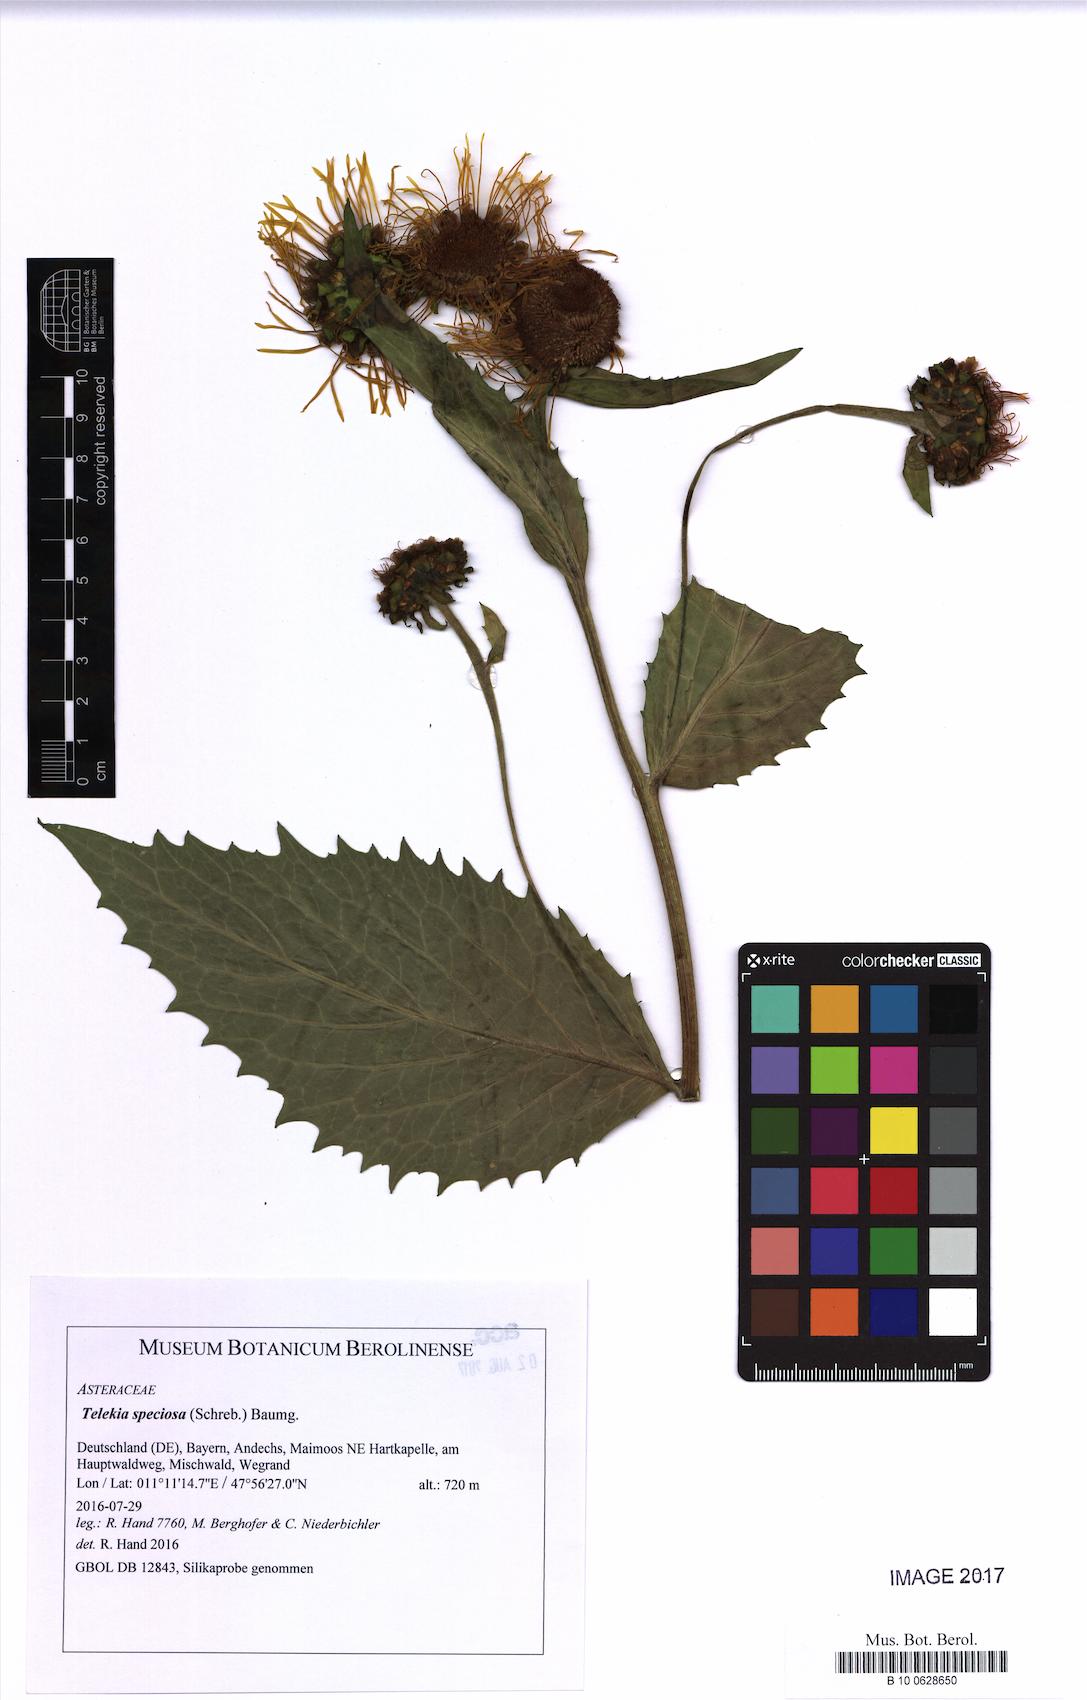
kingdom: Plantae
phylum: Tracheophyta
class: Magnoliopsida
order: Asterales
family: Asteraceae
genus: Telekia
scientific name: Telekia speciosa
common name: Yellow oxeye
